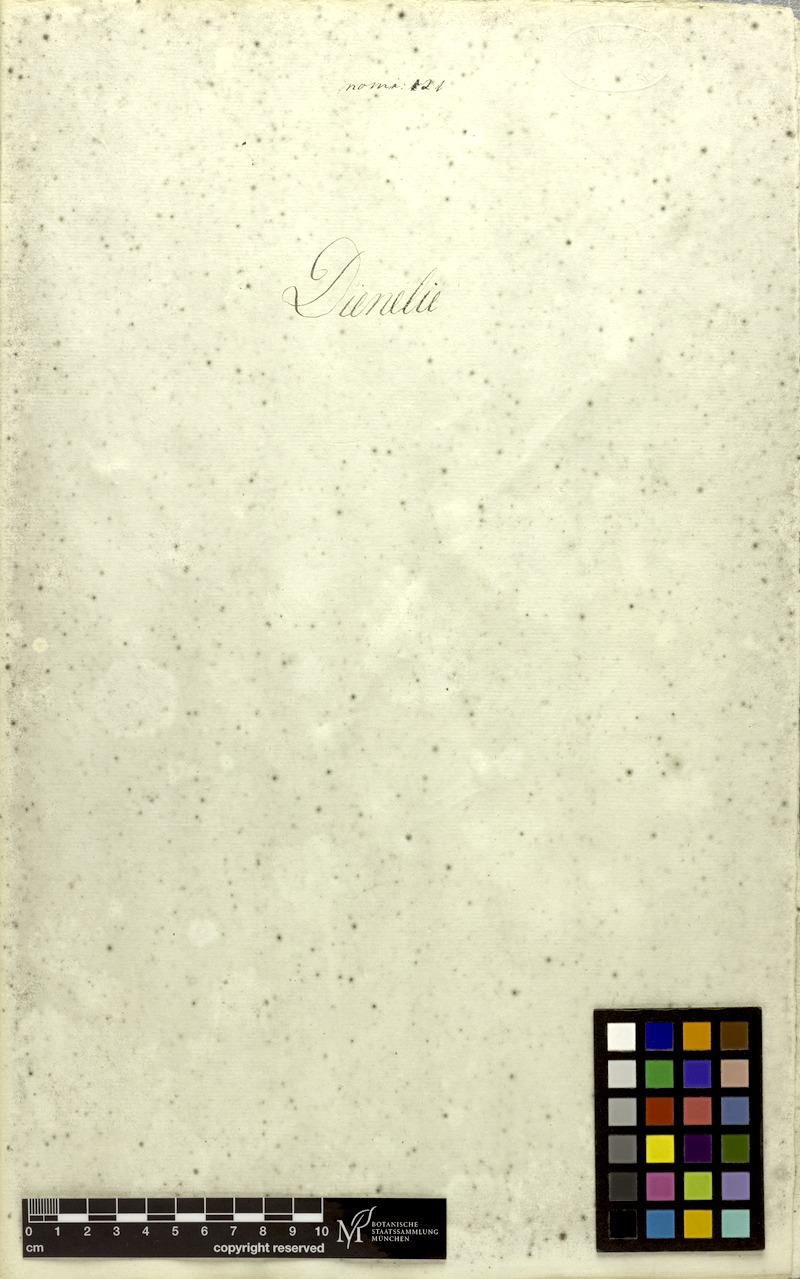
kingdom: Plantae
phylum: Tracheophyta
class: Magnoliopsida
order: Malvales
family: Malvaceae
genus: Corchorus
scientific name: Corchorus capsularis
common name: Jute
